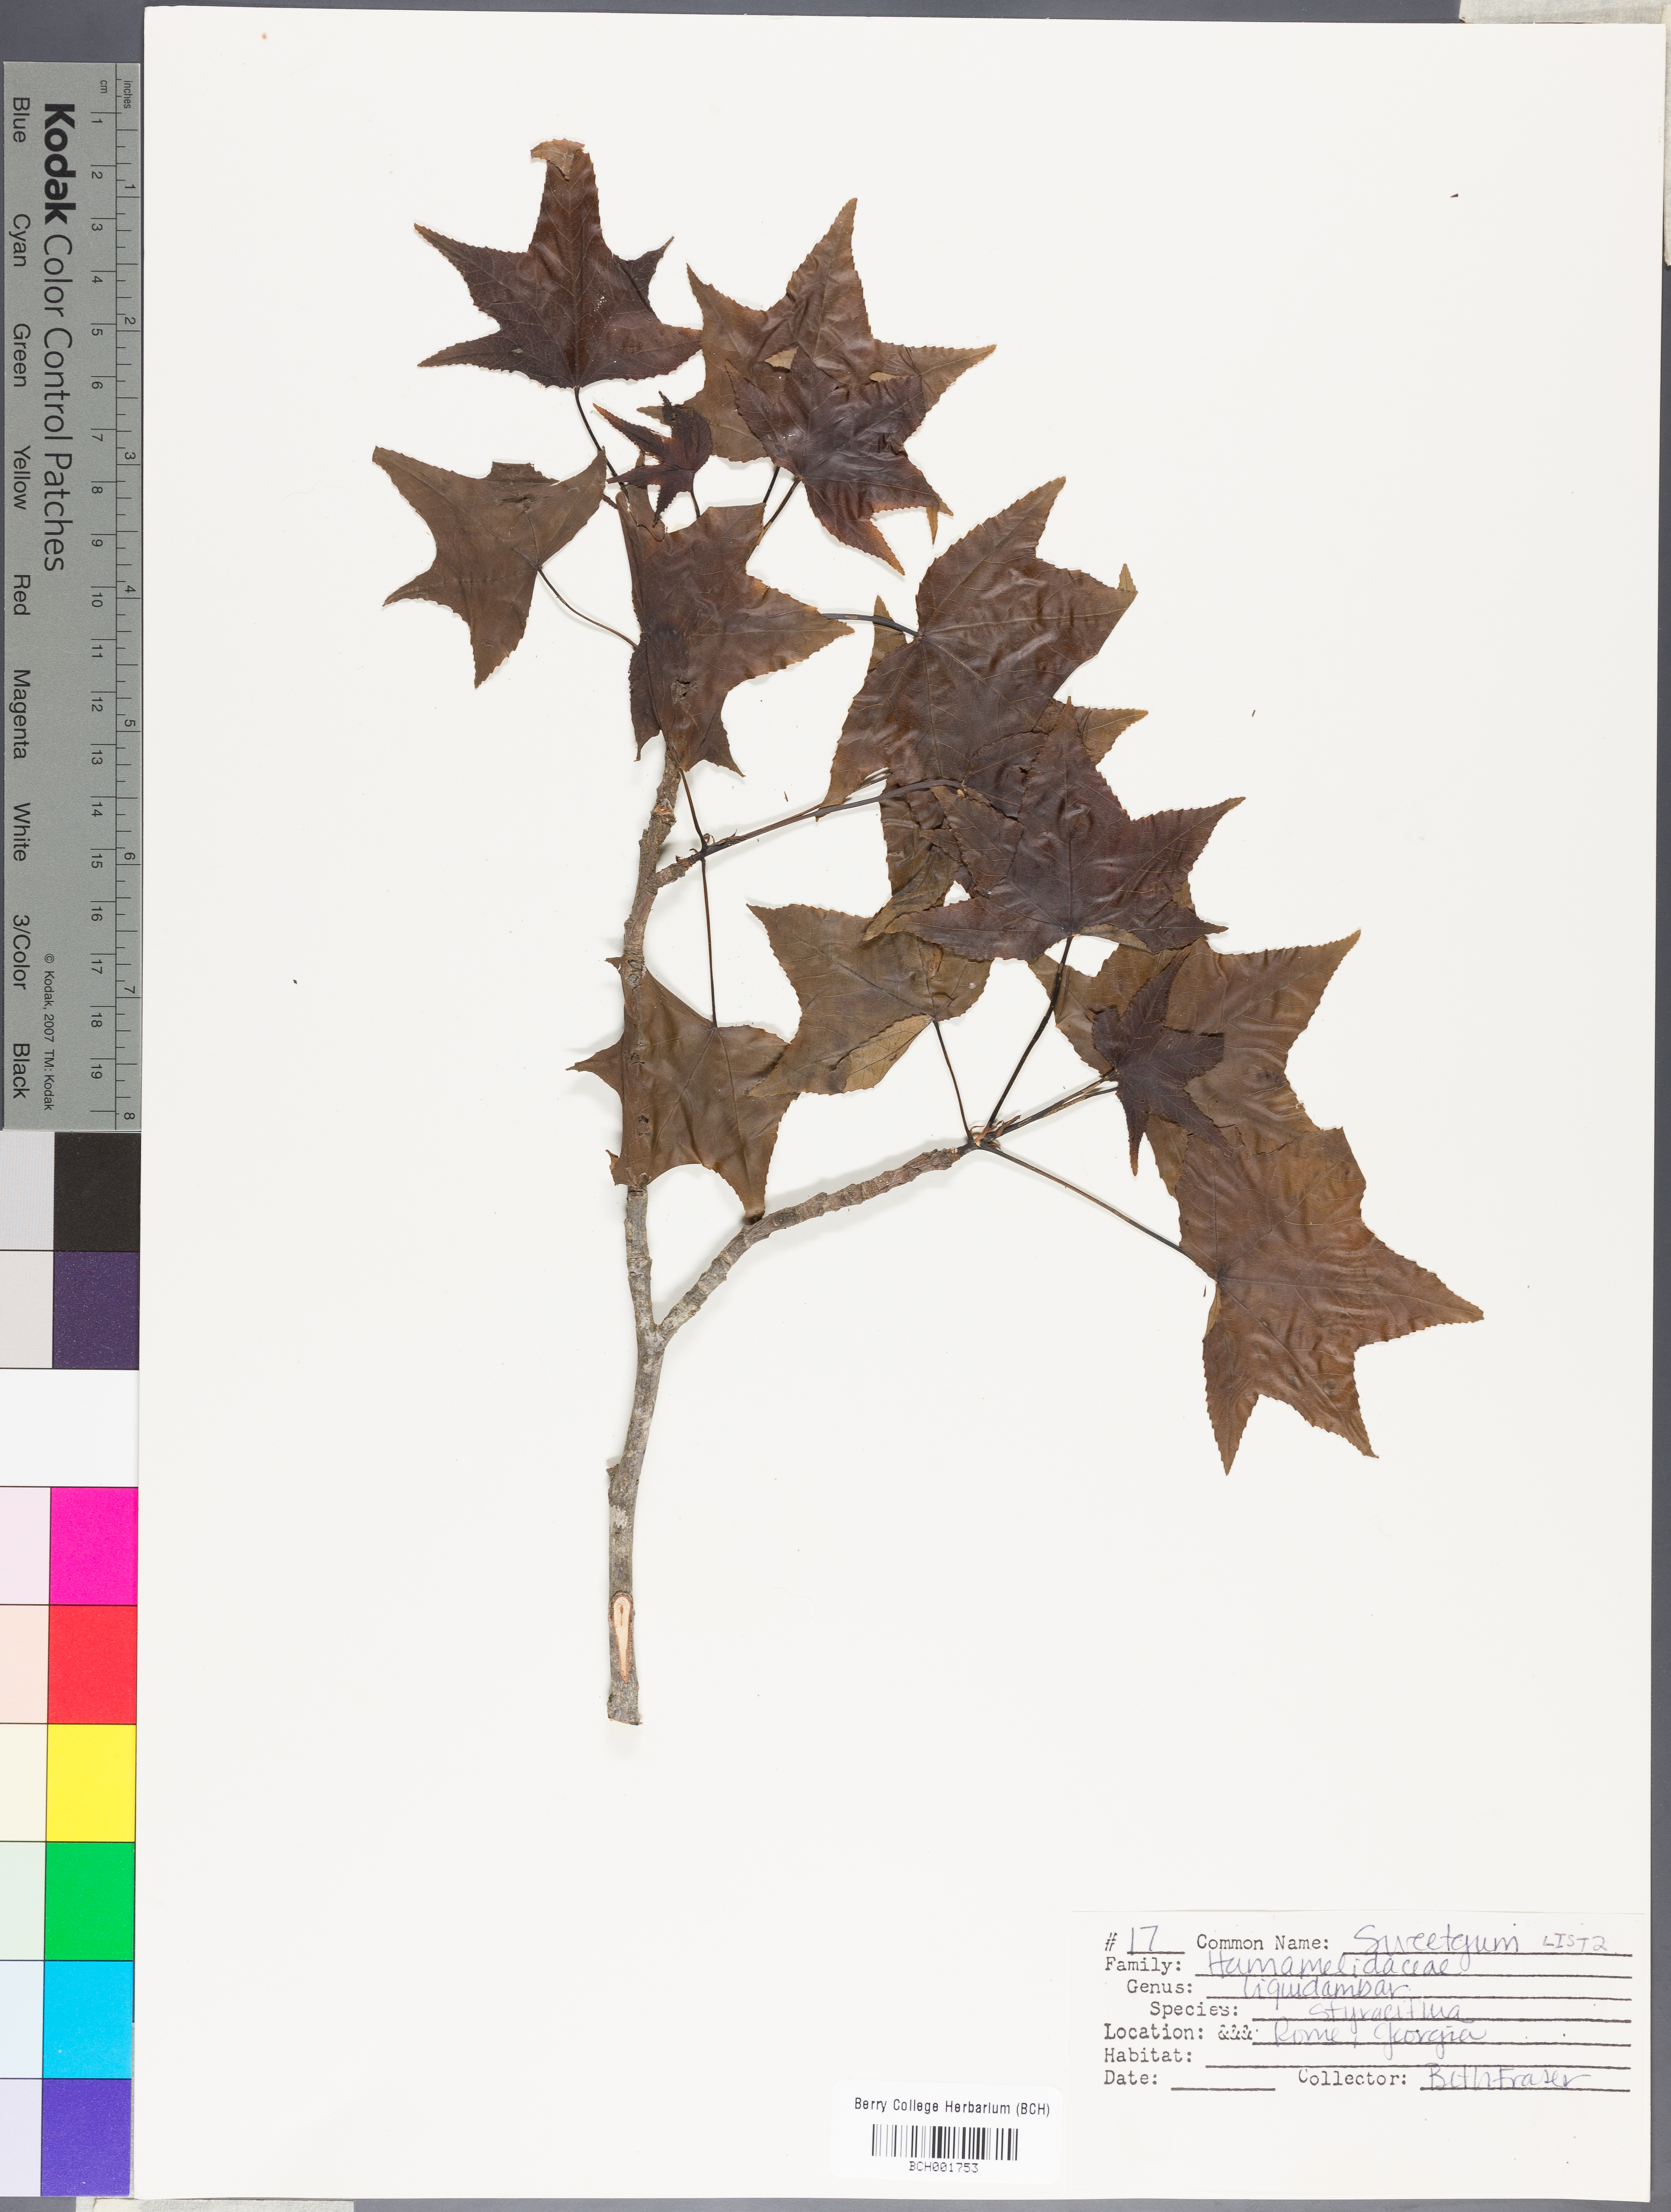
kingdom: Plantae
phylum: Tracheophyta
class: Magnoliopsida
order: Saxifragales
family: Altingiaceae
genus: Liquidambar
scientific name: Liquidambar styraciflua
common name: Sweet gum
